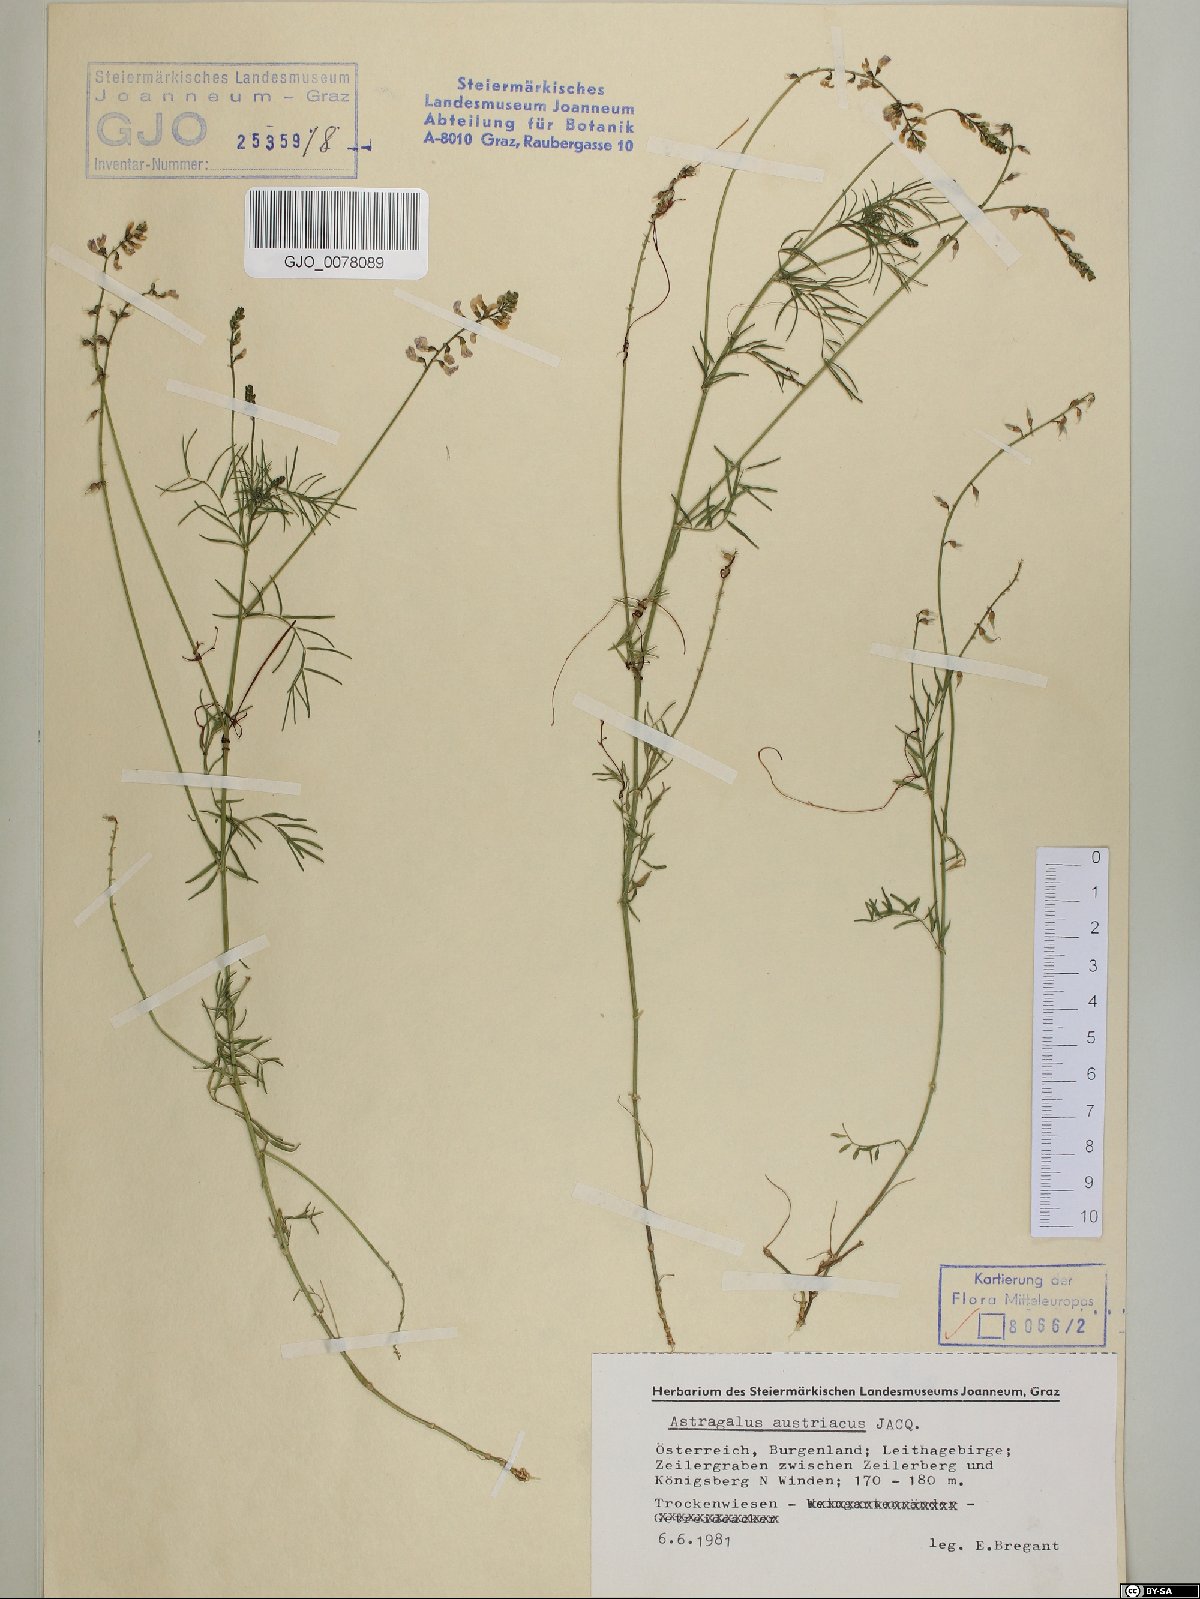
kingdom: Plantae
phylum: Tracheophyta
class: Magnoliopsida
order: Fabales
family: Fabaceae
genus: Astragalus
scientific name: Astragalus austriacus
